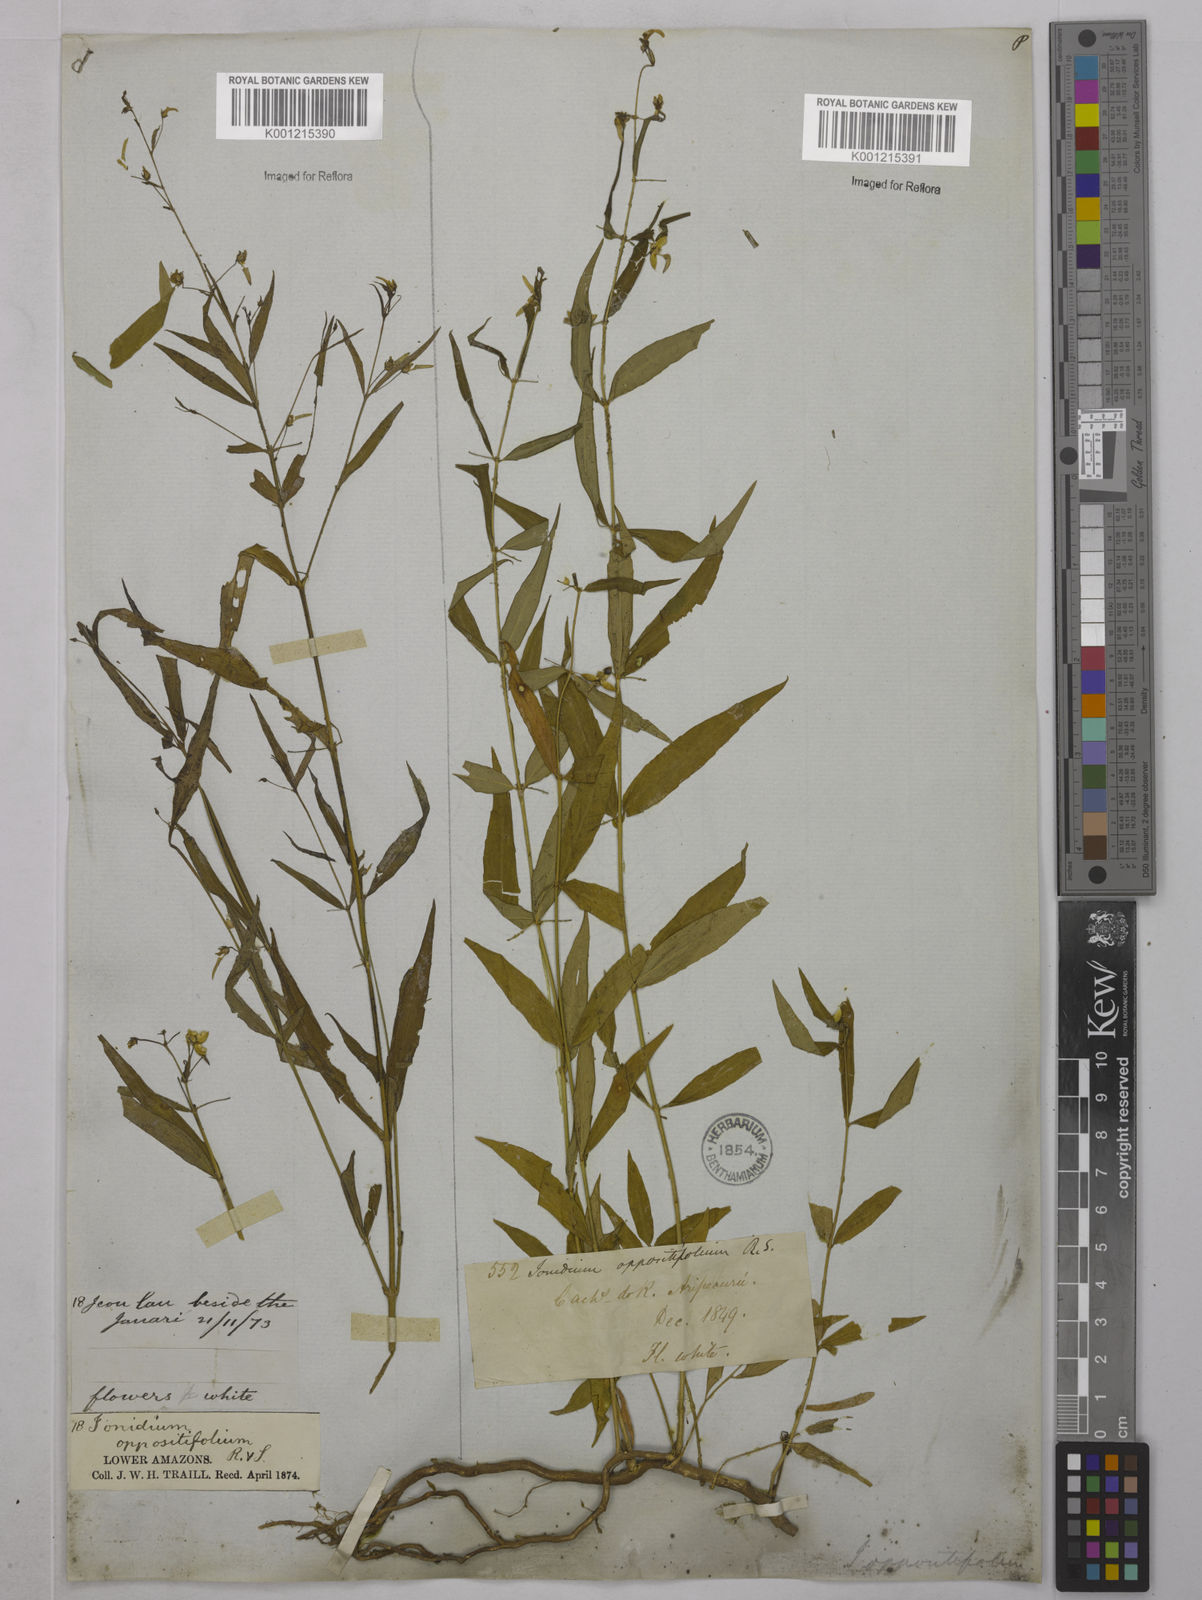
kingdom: Plantae
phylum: Tracheophyta
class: Magnoliopsida
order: Malpighiales
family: Violaceae
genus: Pombalia
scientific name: Pombalia oppositifolia
